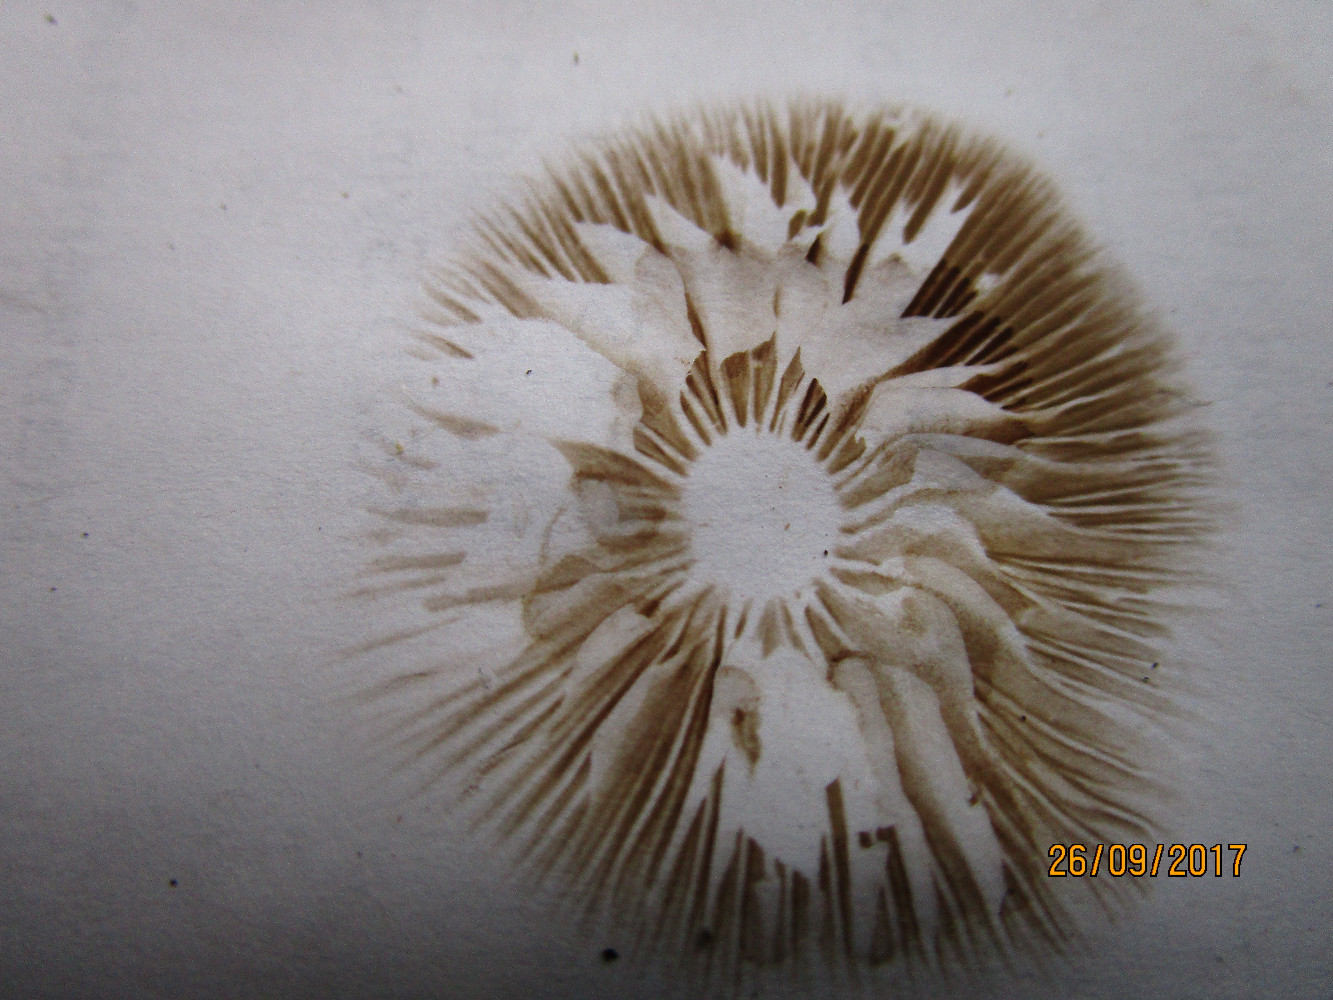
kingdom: Fungi
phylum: Basidiomycota
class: Agaricomycetes
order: Agaricales
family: Crepidotaceae
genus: Simocybe
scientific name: Simocybe sumptuosa
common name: stor skyggehat
